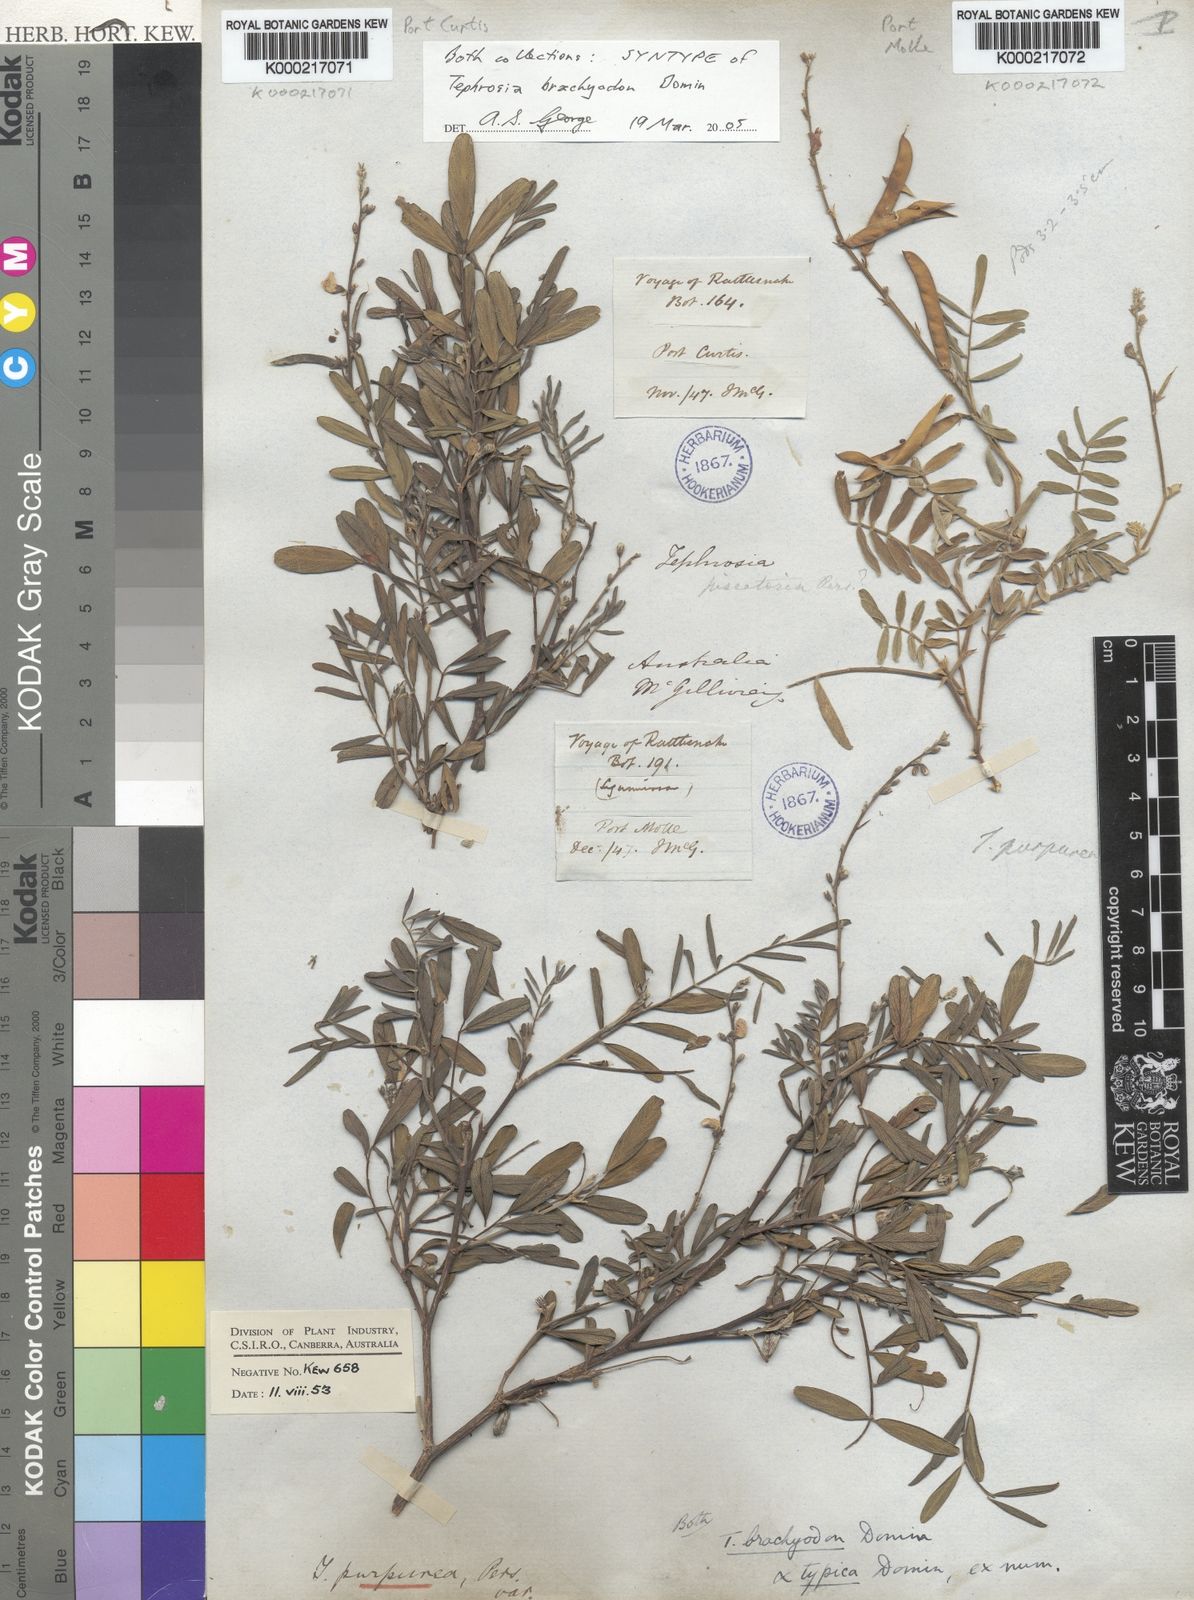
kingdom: Plantae
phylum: Tracheophyta
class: Magnoliopsida
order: Fabales
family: Fabaceae
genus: Tephrosia
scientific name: Tephrosia brachyodon
